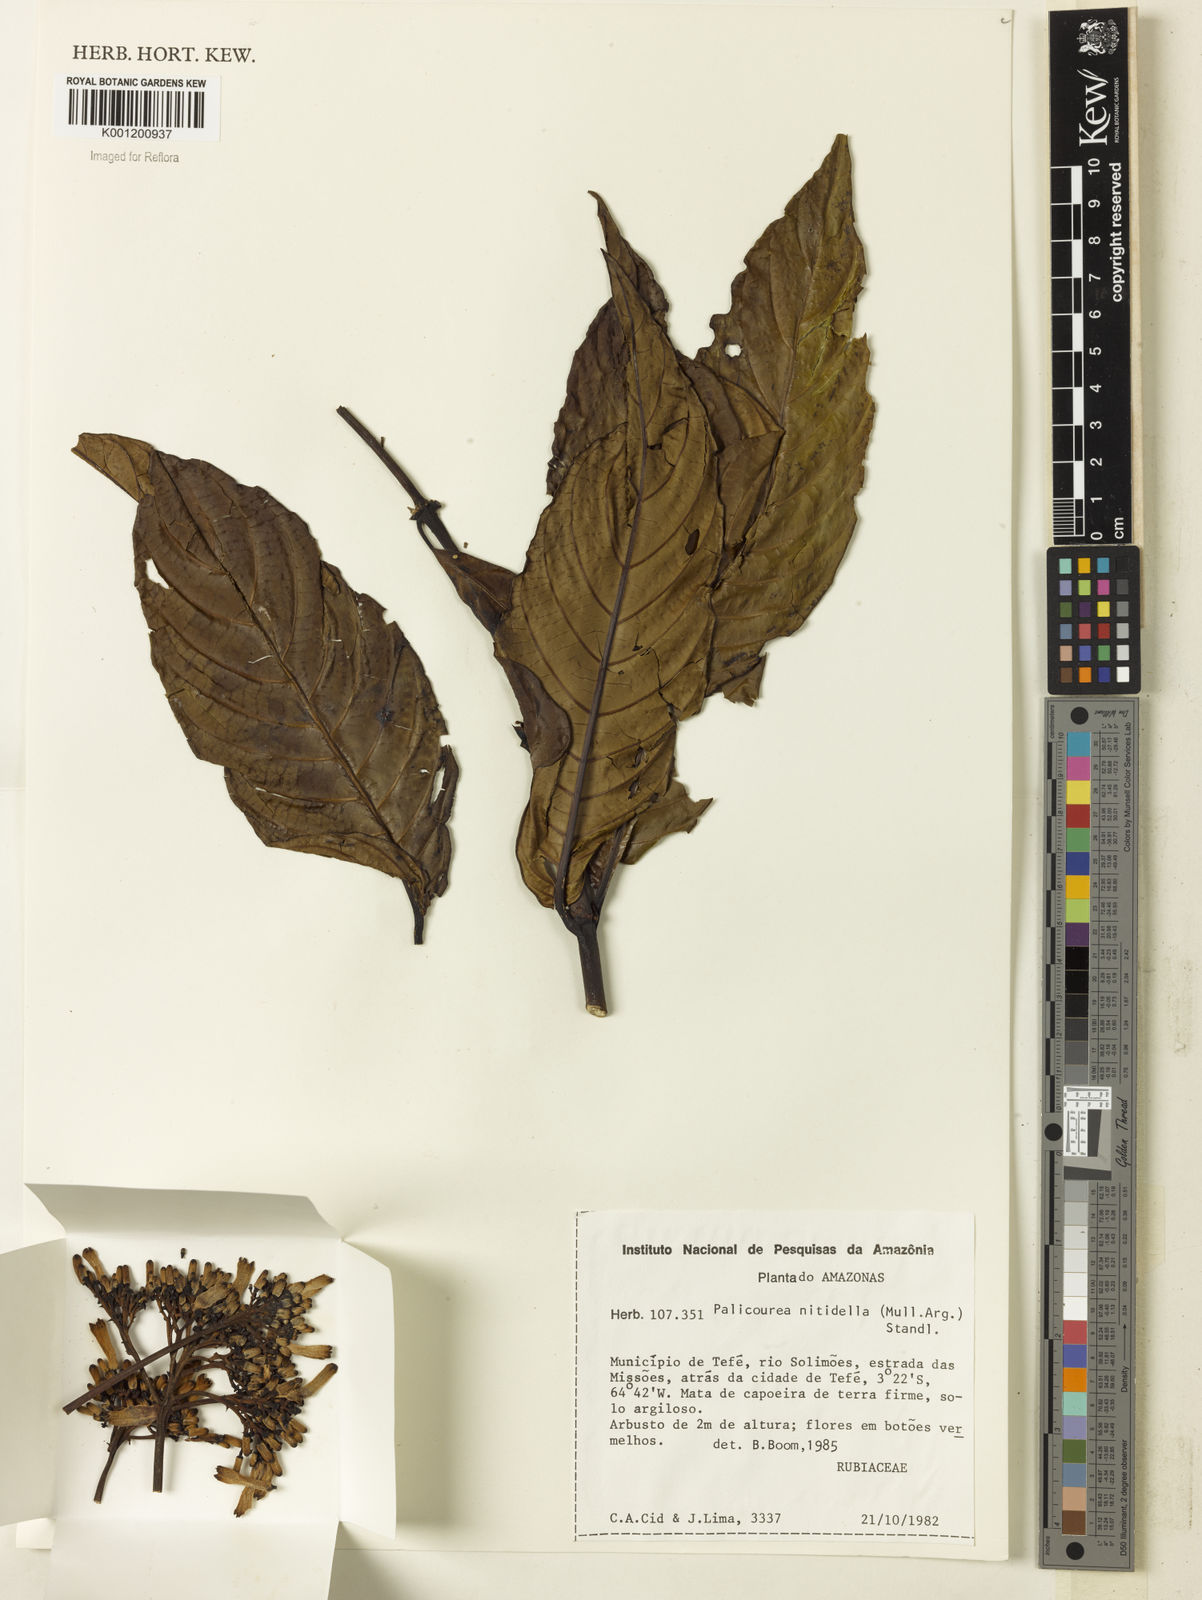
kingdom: Plantae
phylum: Tracheophyta
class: Magnoliopsida
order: Gentianales
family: Rubiaceae
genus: Palicourea
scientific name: Palicourea
